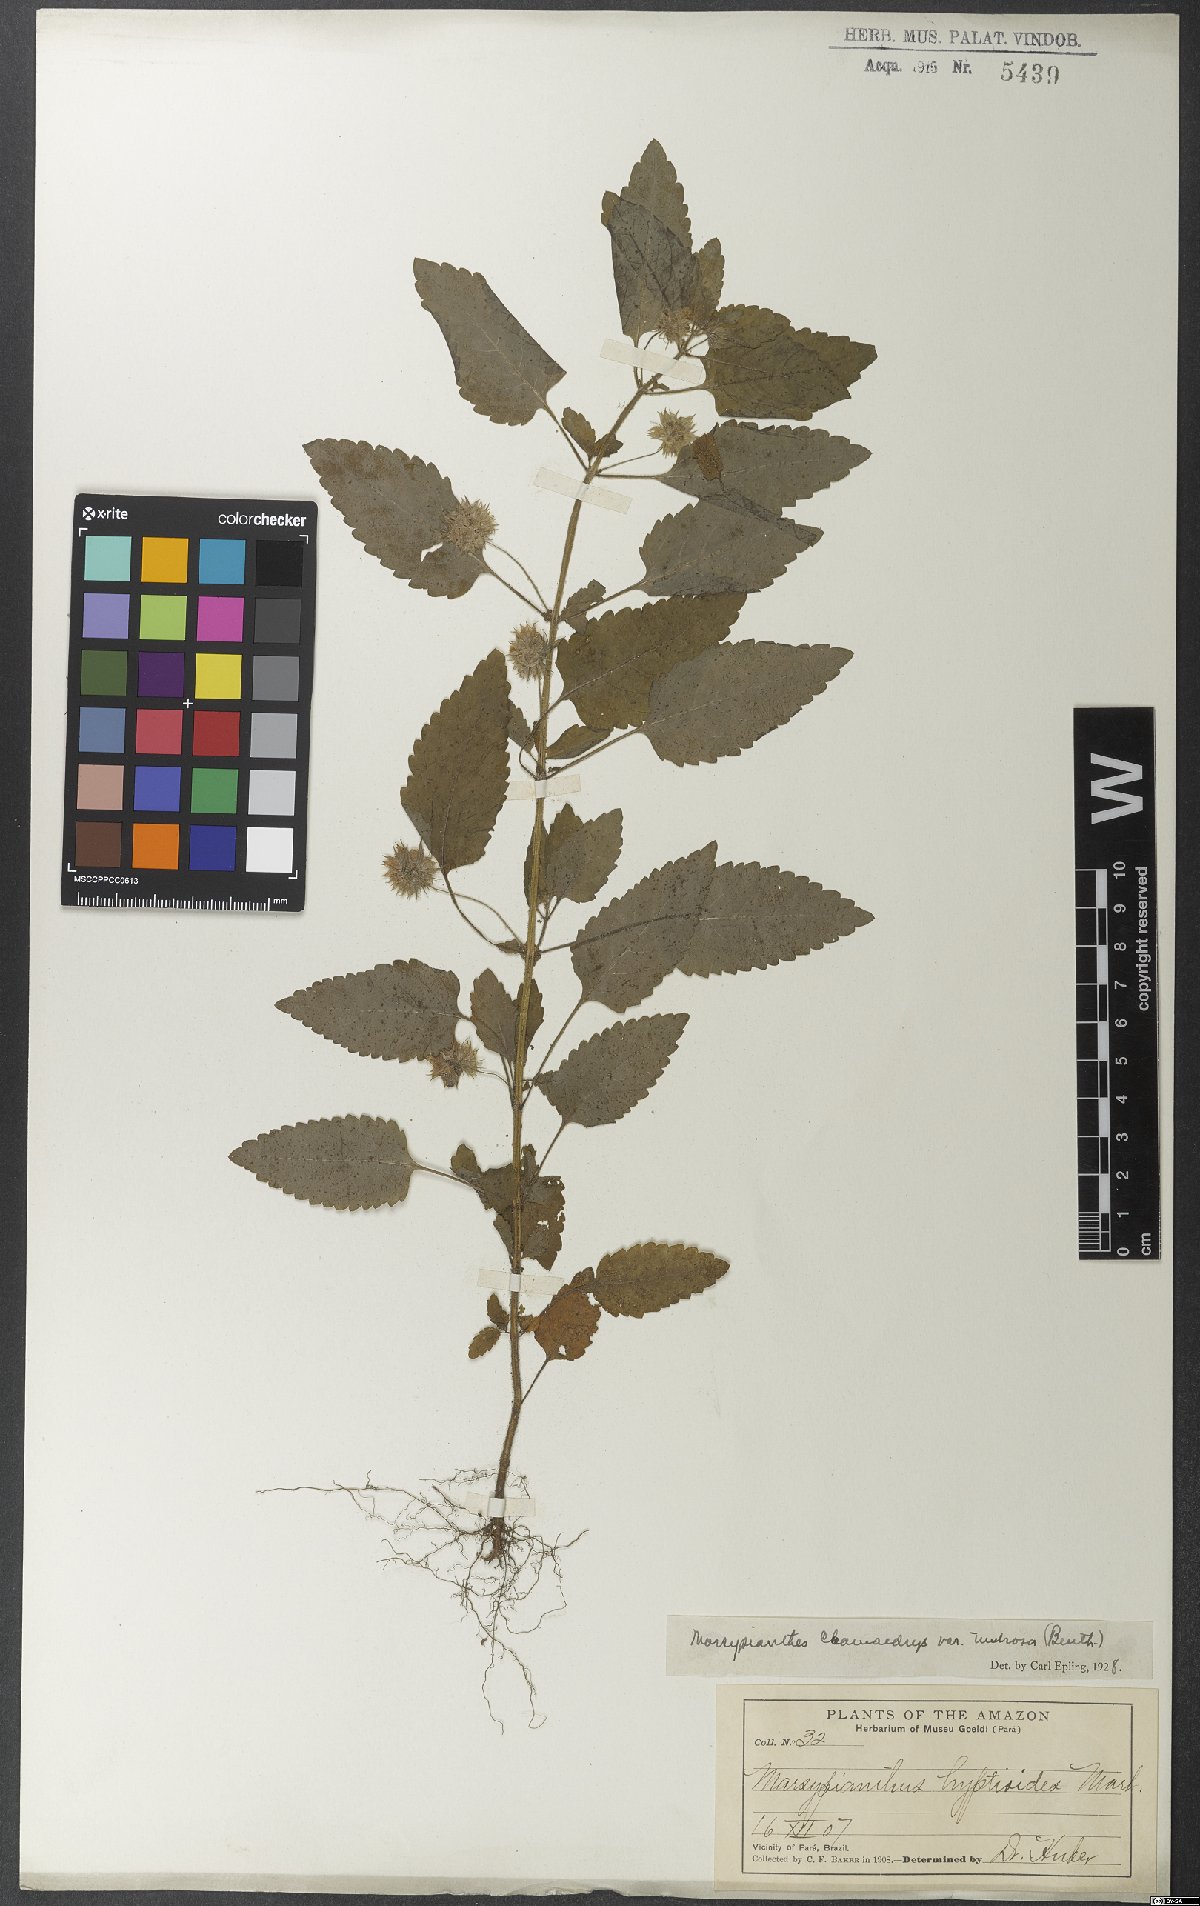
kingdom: Plantae
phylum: Tracheophyta
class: Magnoliopsida
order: Lamiales
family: Lamiaceae
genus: Marsypianthes
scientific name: Marsypianthes chamaedrys
